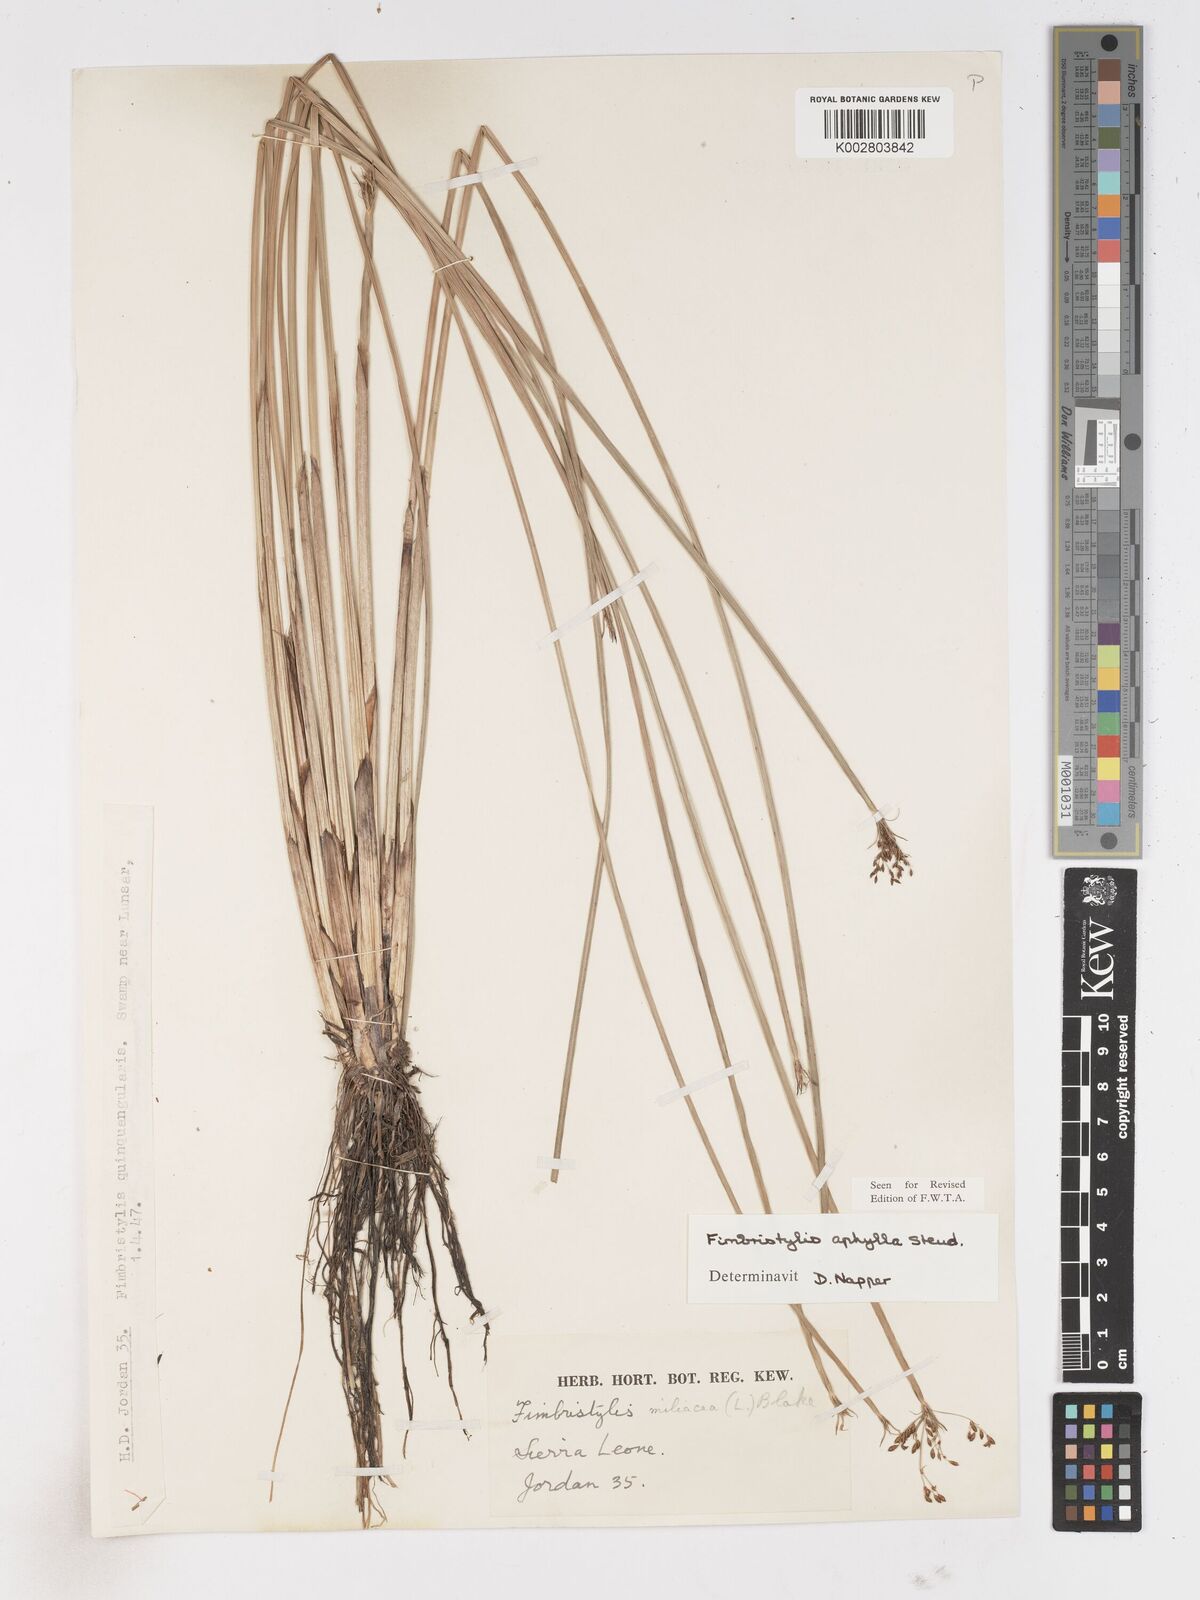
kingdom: Plantae
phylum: Tracheophyta
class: Liliopsida
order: Poales
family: Cyperaceae
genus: Fimbristylis
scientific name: Fimbristylis aphylla
